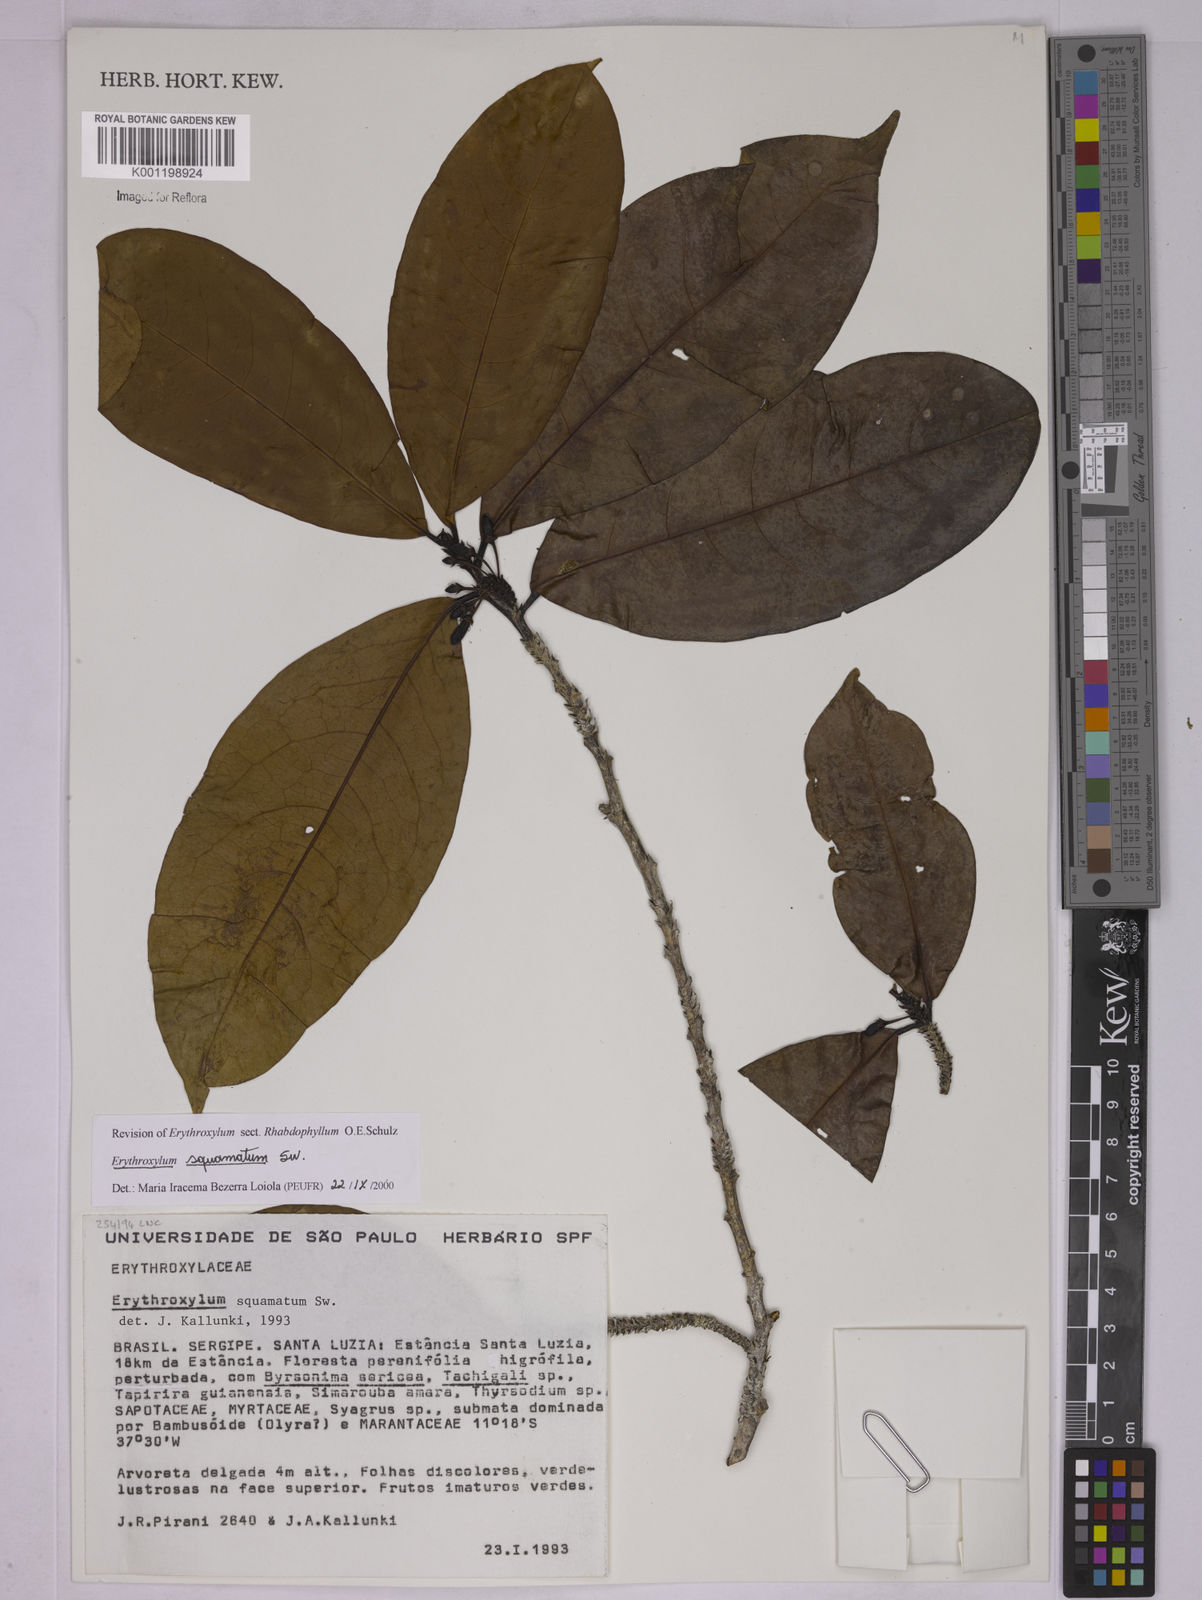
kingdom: Plantae
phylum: Tracheophyta
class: Magnoliopsida
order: Malpighiales
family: Erythroxylaceae
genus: Erythroxylum
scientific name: Erythroxylum squamatum
